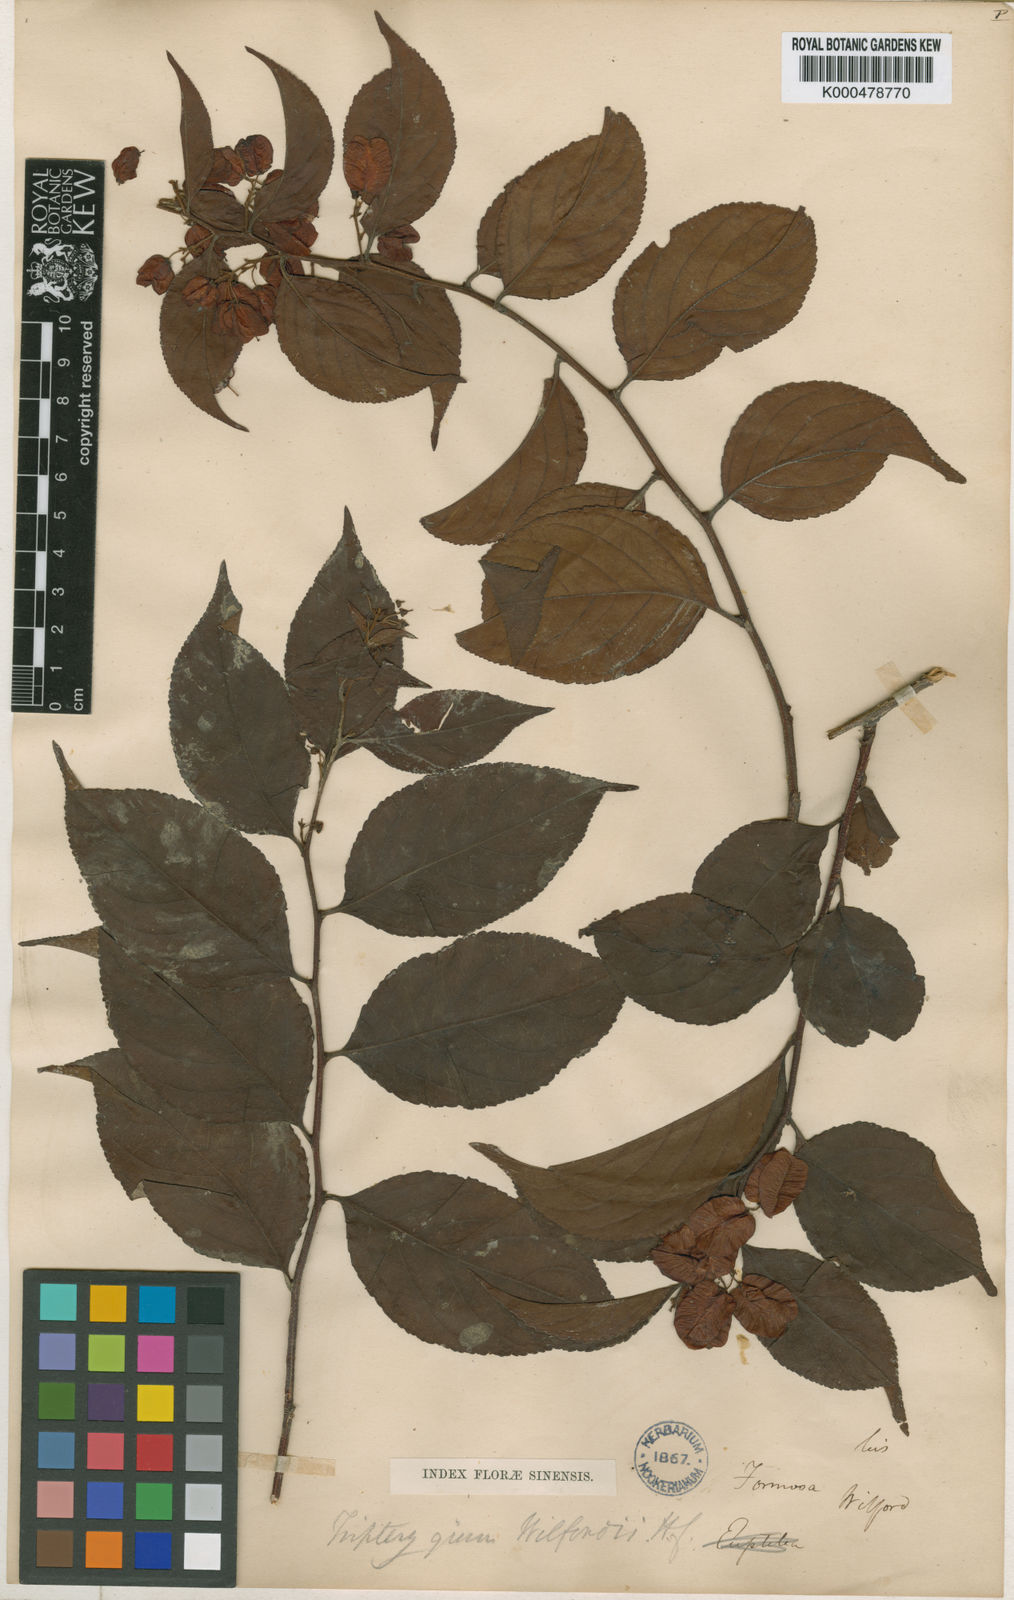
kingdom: Plantae
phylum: Tracheophyta
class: Magnoliopsida
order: Celastrales
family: Celastraceae
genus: Tripterygium
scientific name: Tripterygium wilfordii
